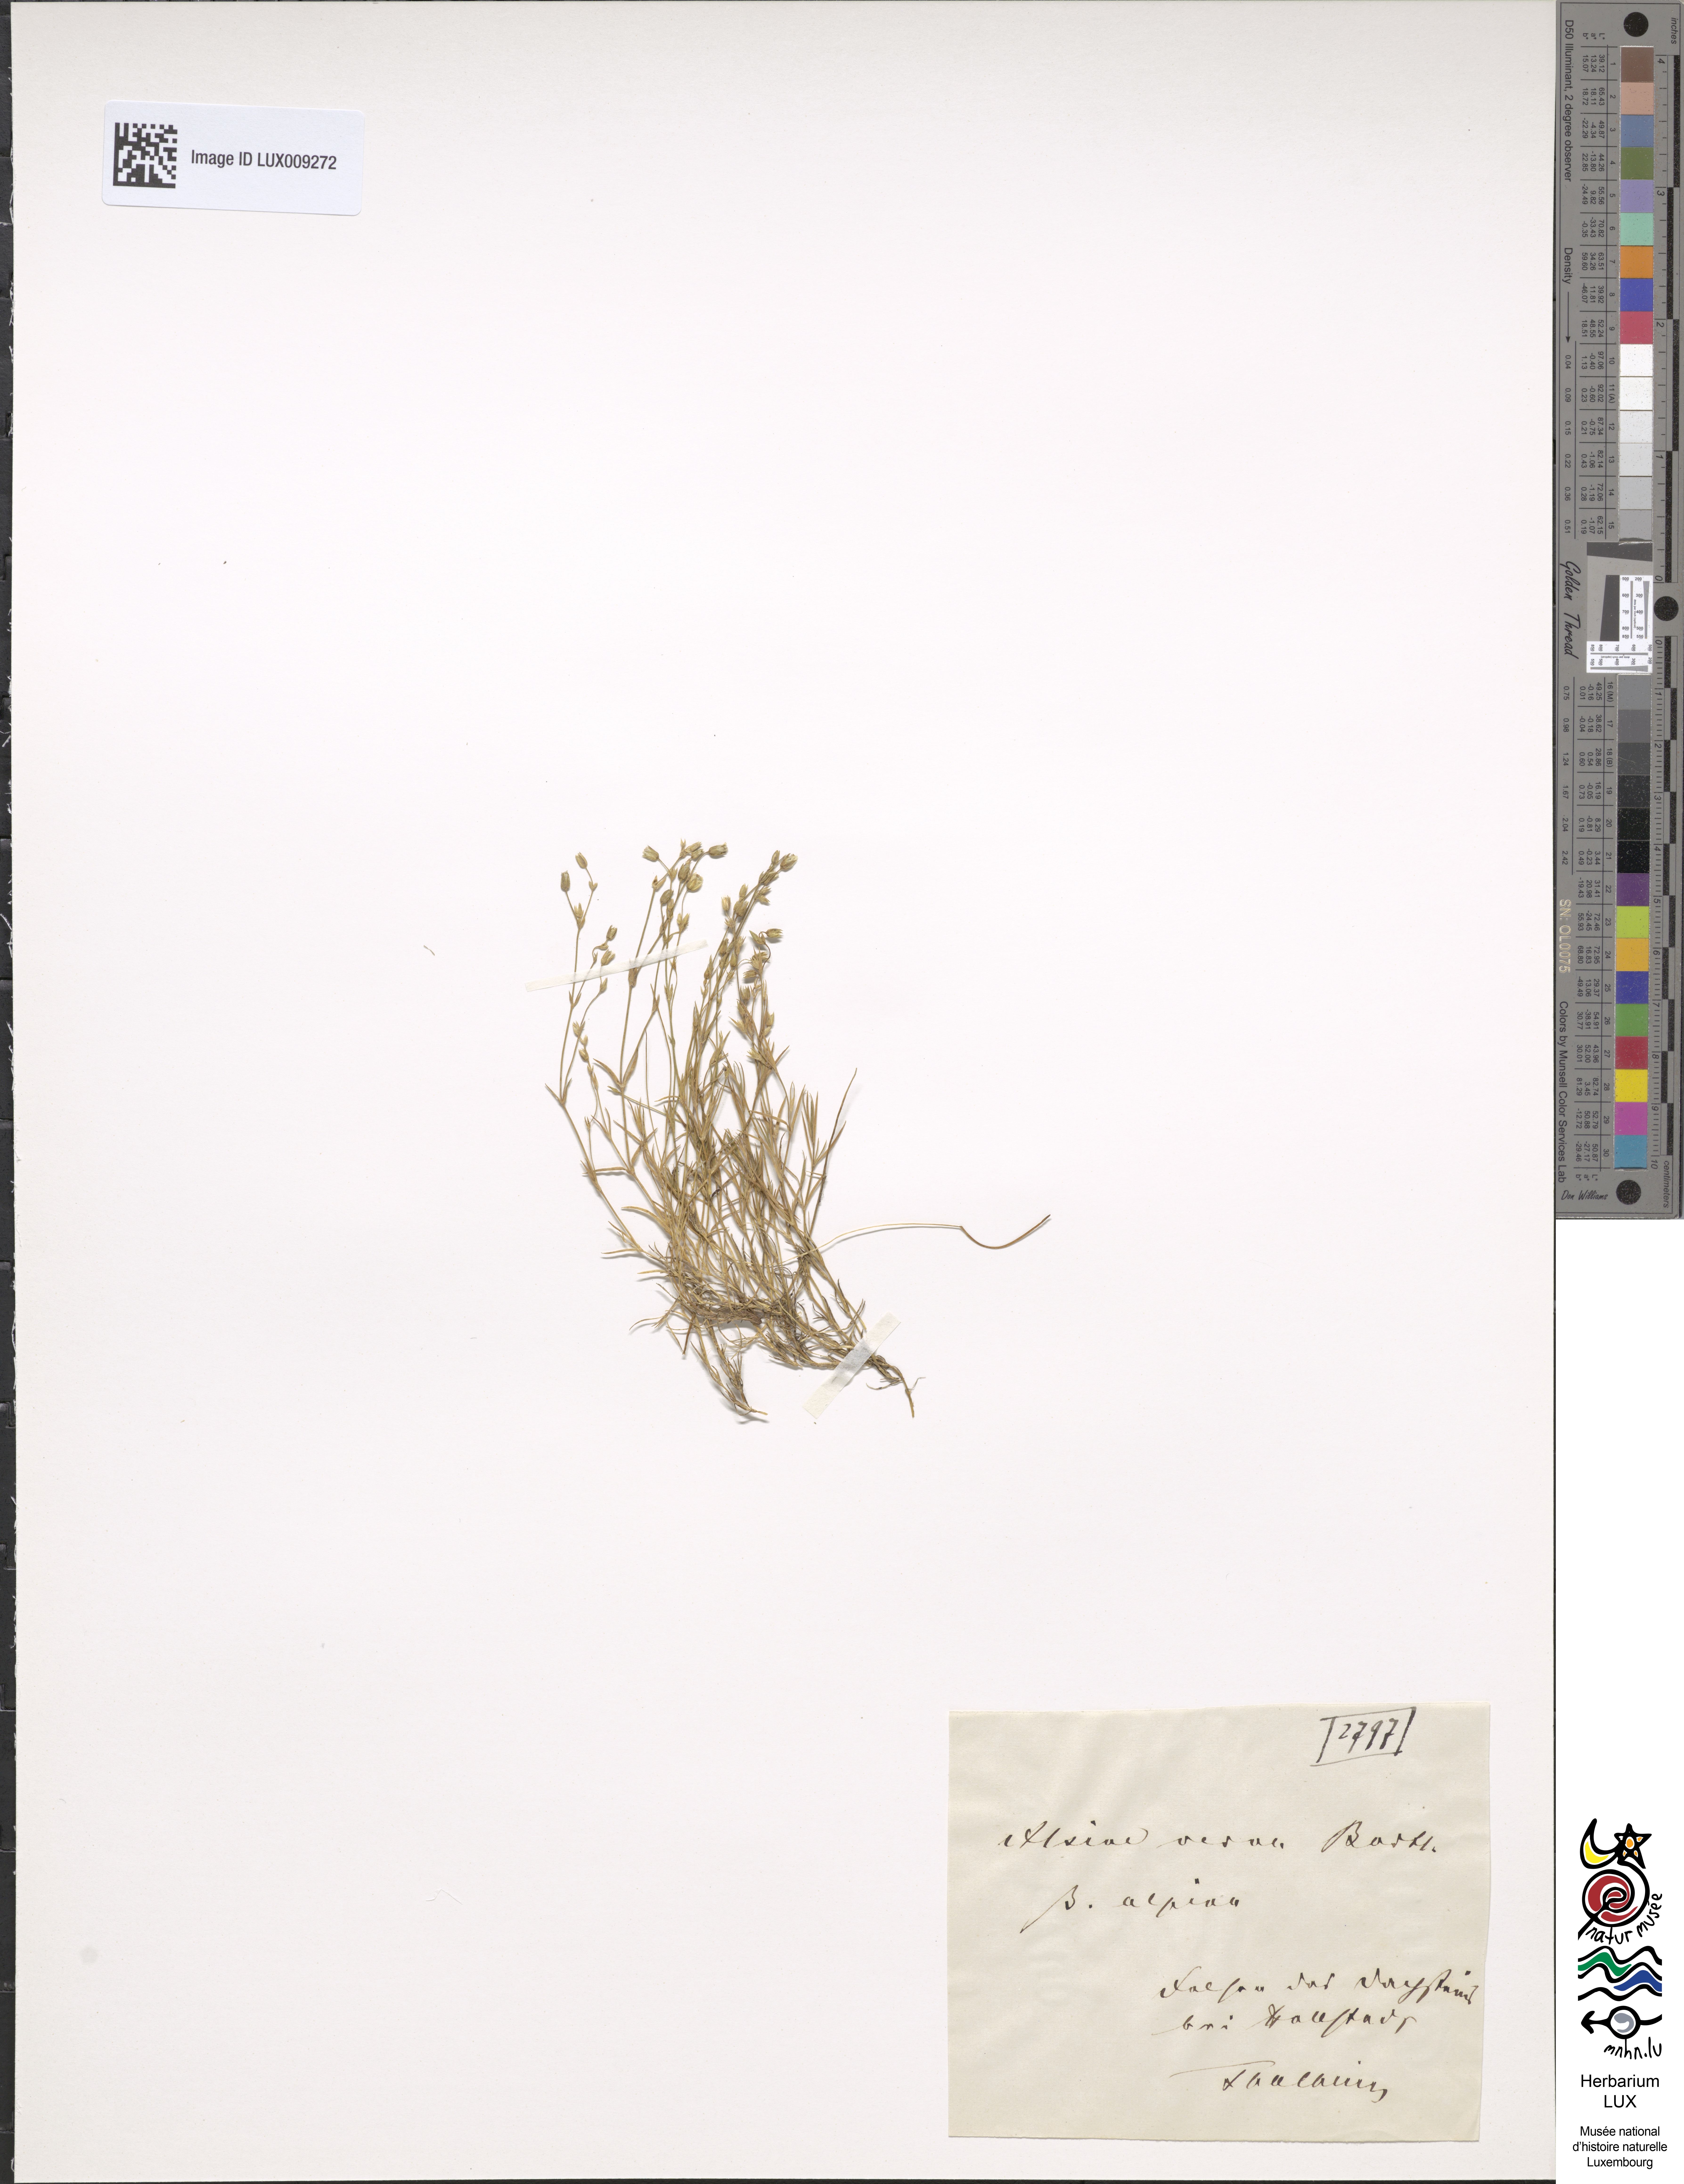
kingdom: Plantae
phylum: Tracheophyta
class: Magnoliopsida
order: Caryophyllales
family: Caryophyllaceae
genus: Sabulina
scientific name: Sabulina verna
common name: Spring sandwort
